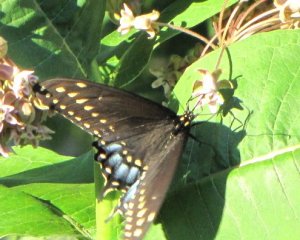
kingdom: Animalia
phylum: Arthropoda
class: Insecta
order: Lepidoptera
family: Papilionidae
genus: Papilio
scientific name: Papilio polyxenes
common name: Black Swallowtail
